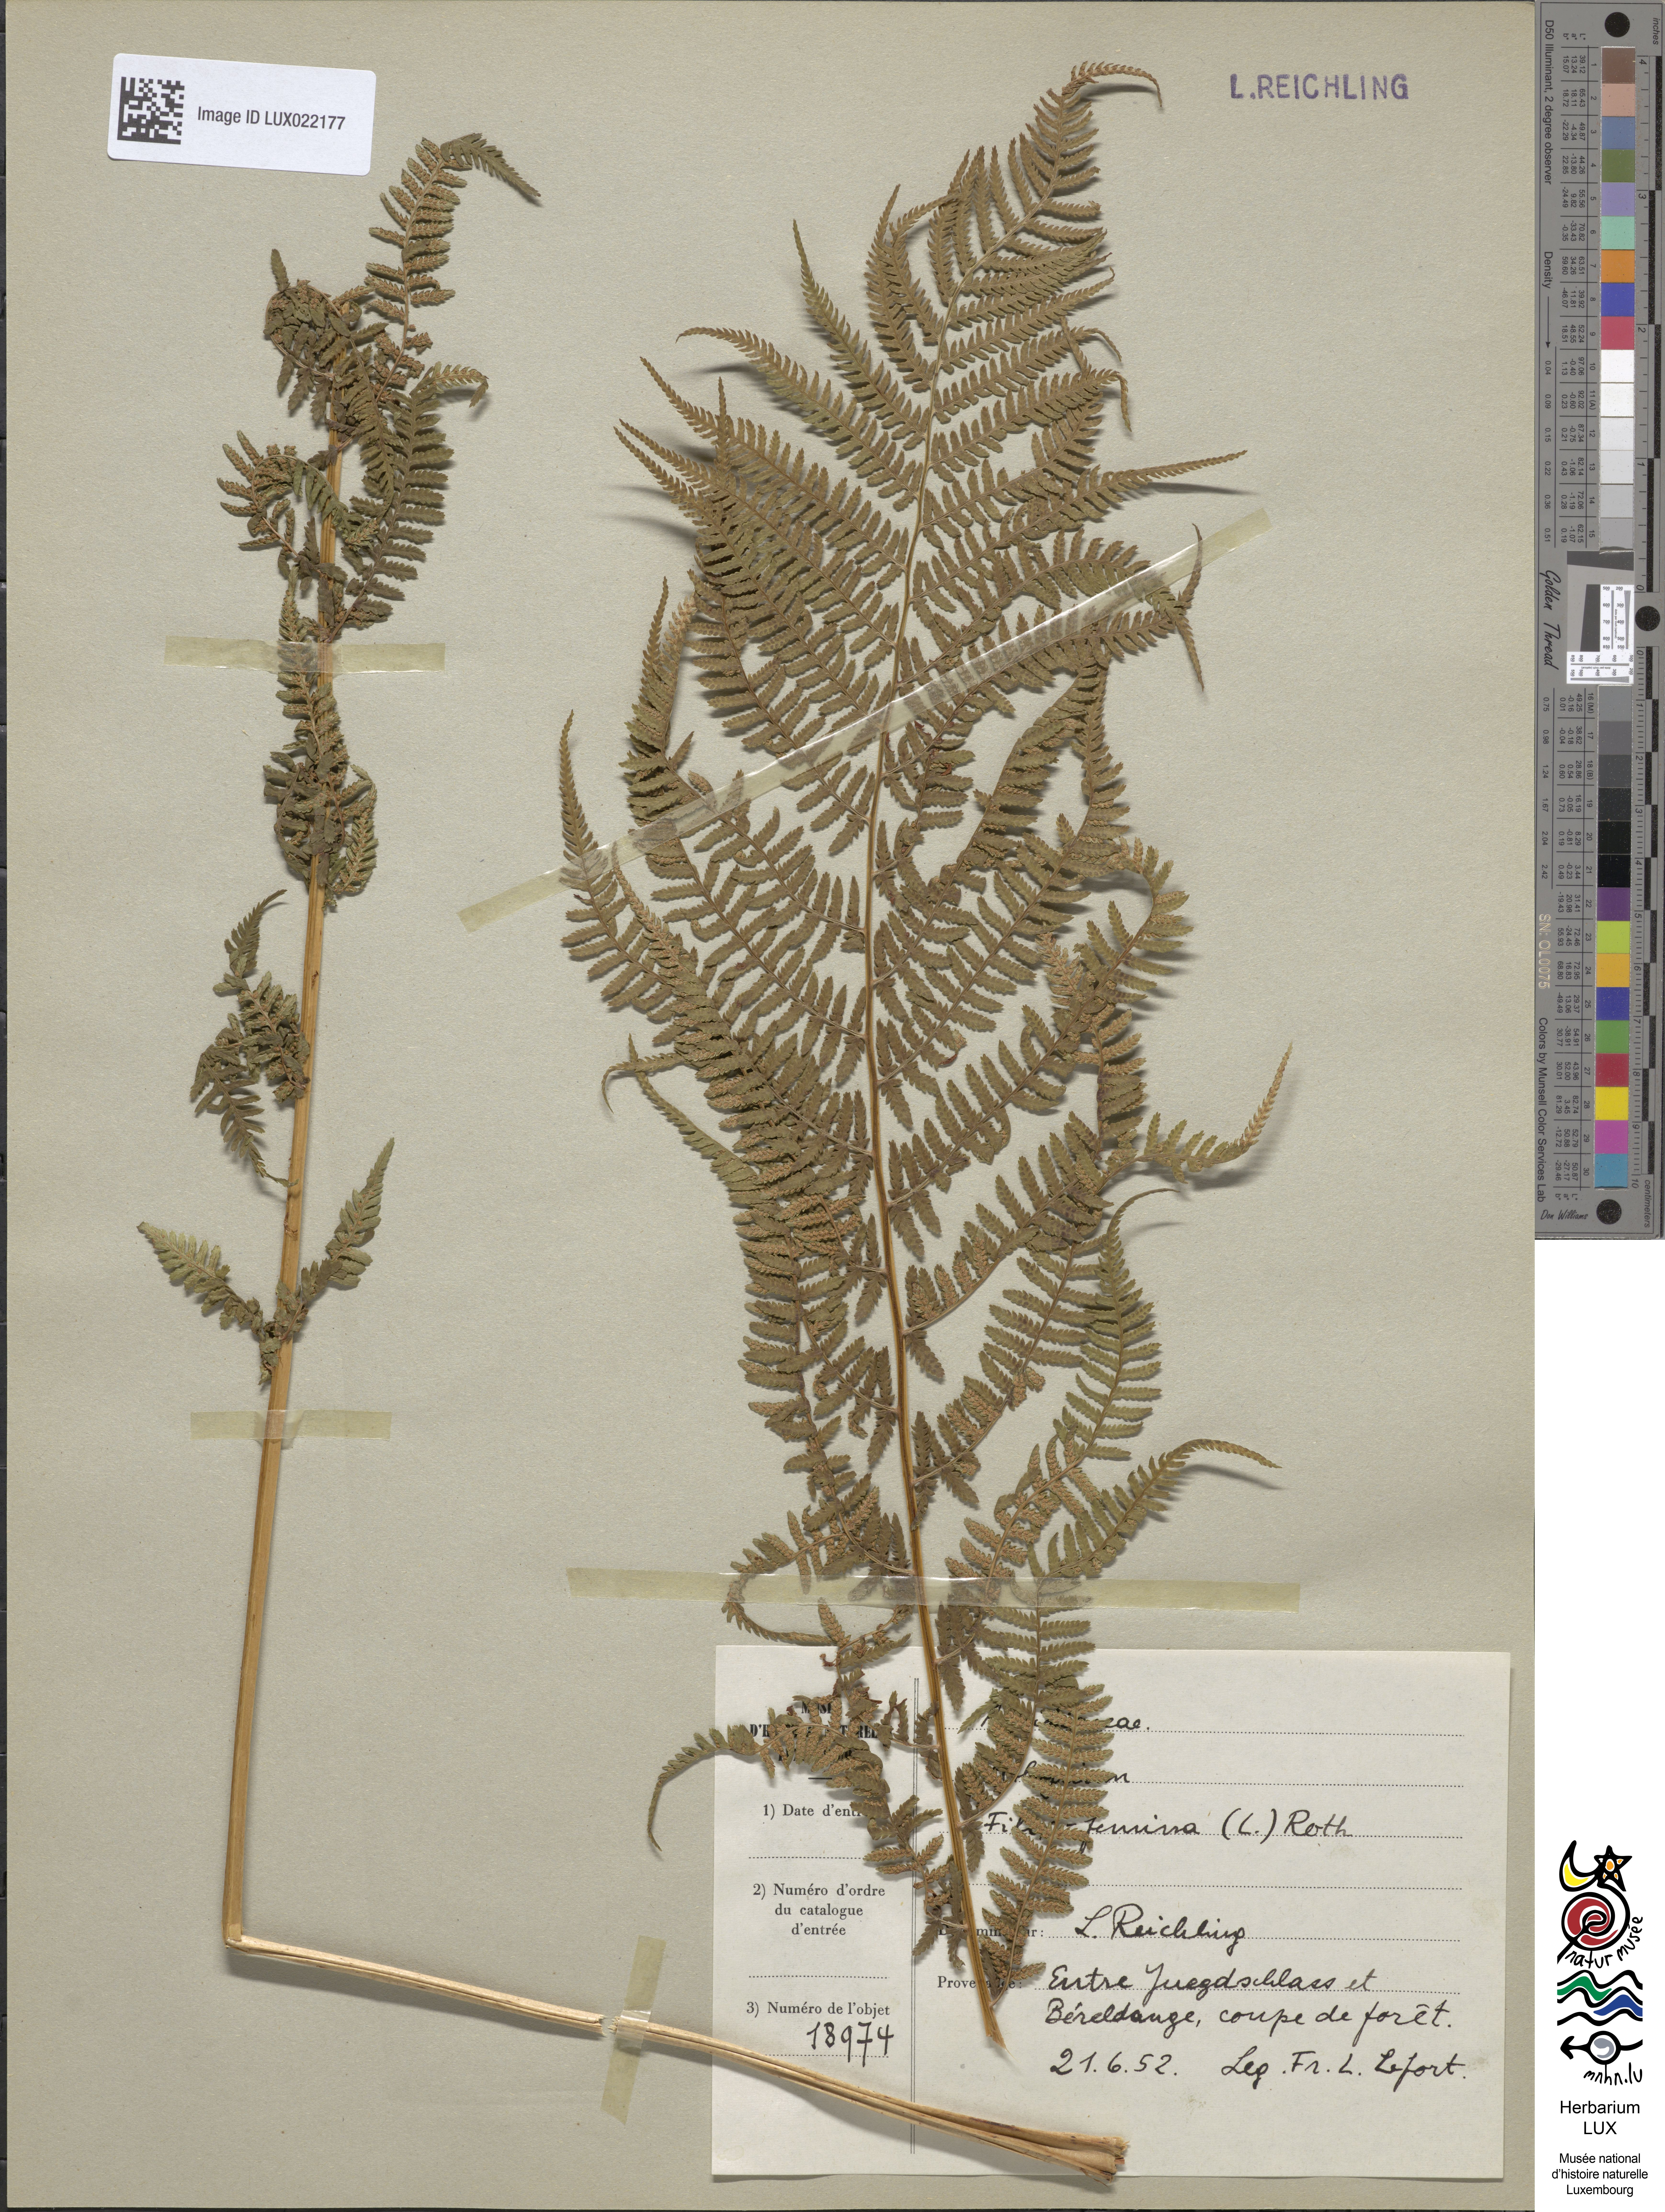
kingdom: Plantae
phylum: Tracheophyta
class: Polypodiopsida
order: Polypodiales
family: Athyriaceae
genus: Athyrium
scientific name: Athyrium filix-femina
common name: Lady fern
